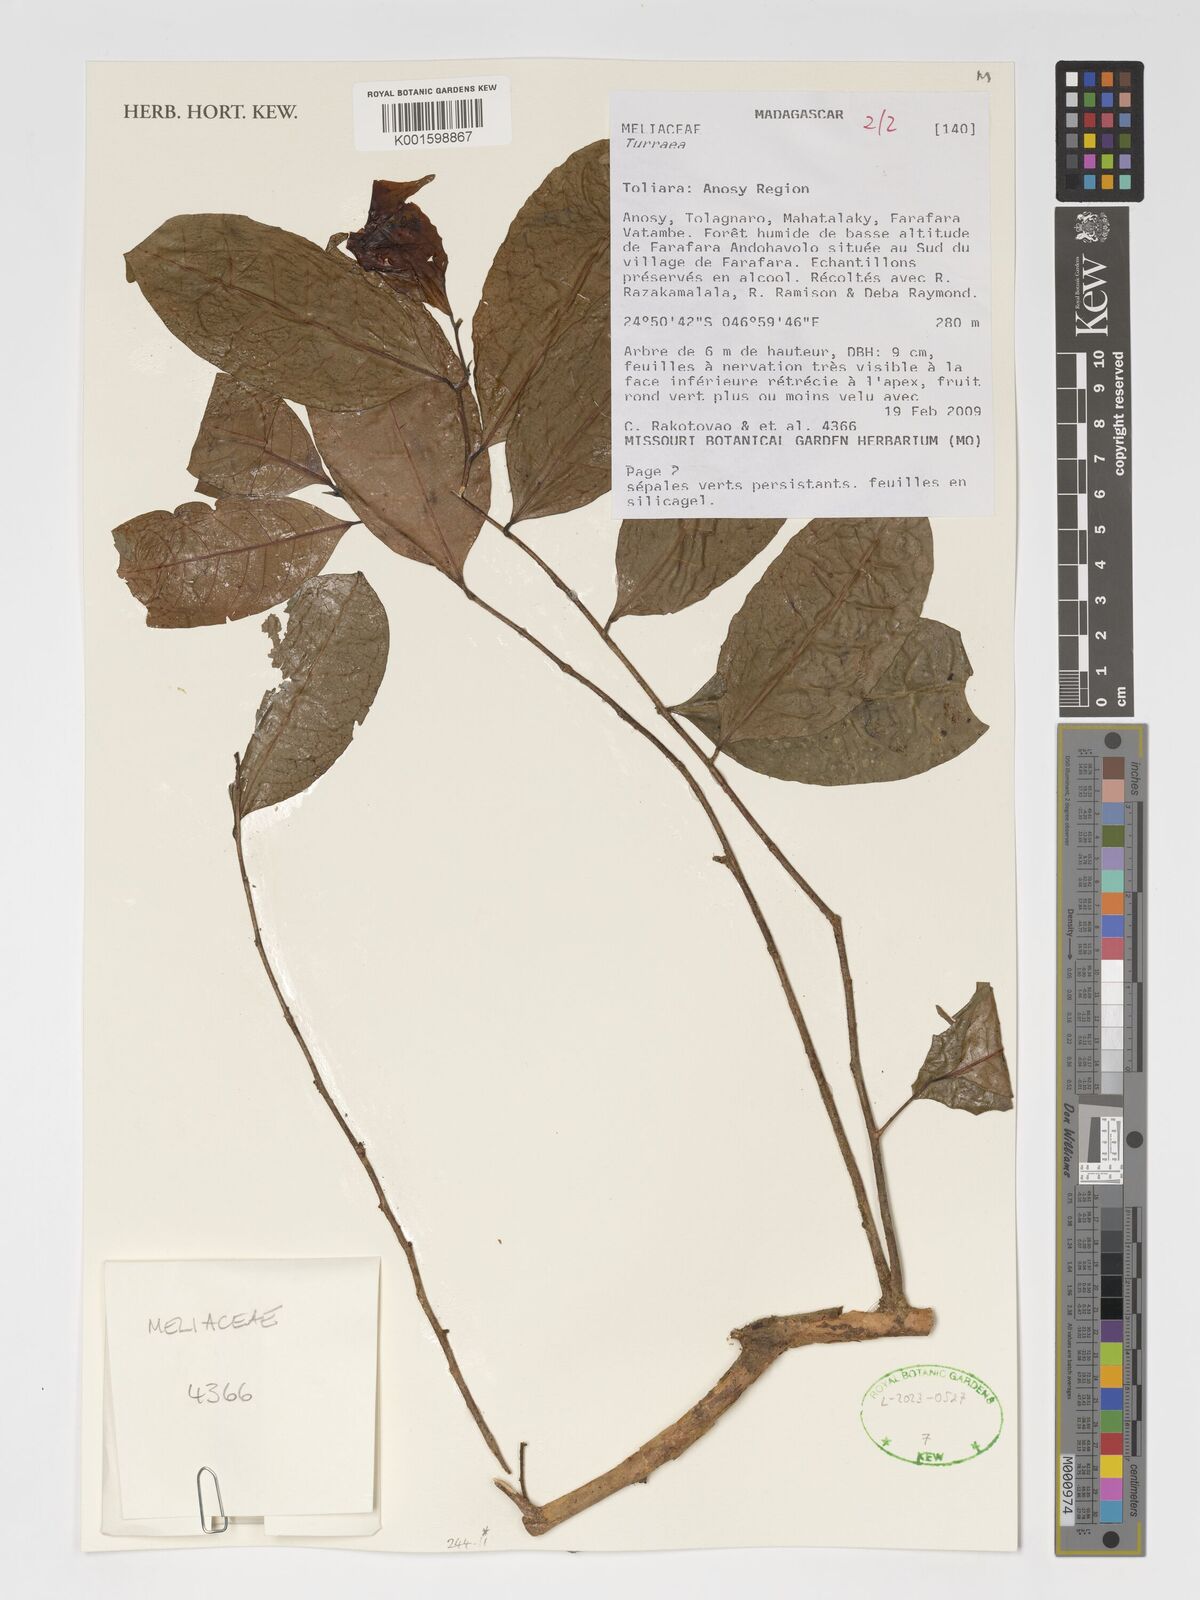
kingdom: Plantae
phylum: Tracheophyta
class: Magnoliopsida
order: Sapindales
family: Meliaceae
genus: Turraea
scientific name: Turraea
